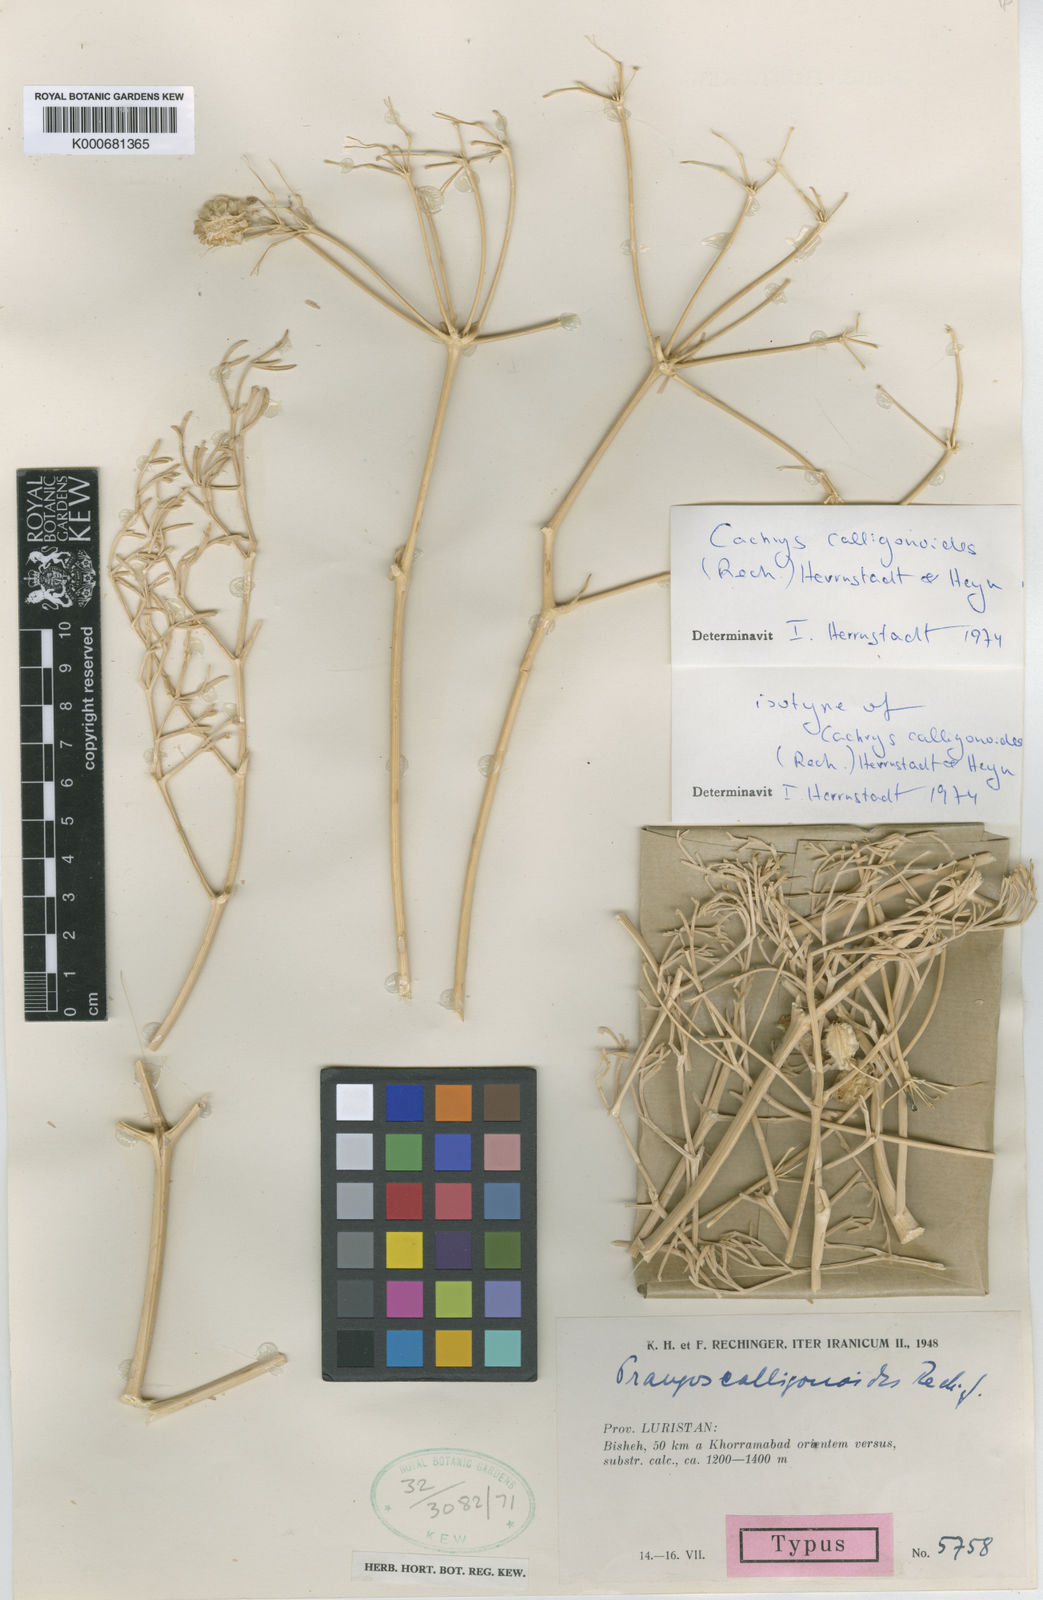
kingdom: Plantae
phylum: Tracheophyta
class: Magnoliopsida
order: Apiales
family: Apiaceae
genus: Prangos
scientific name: Prangos calligonoides
